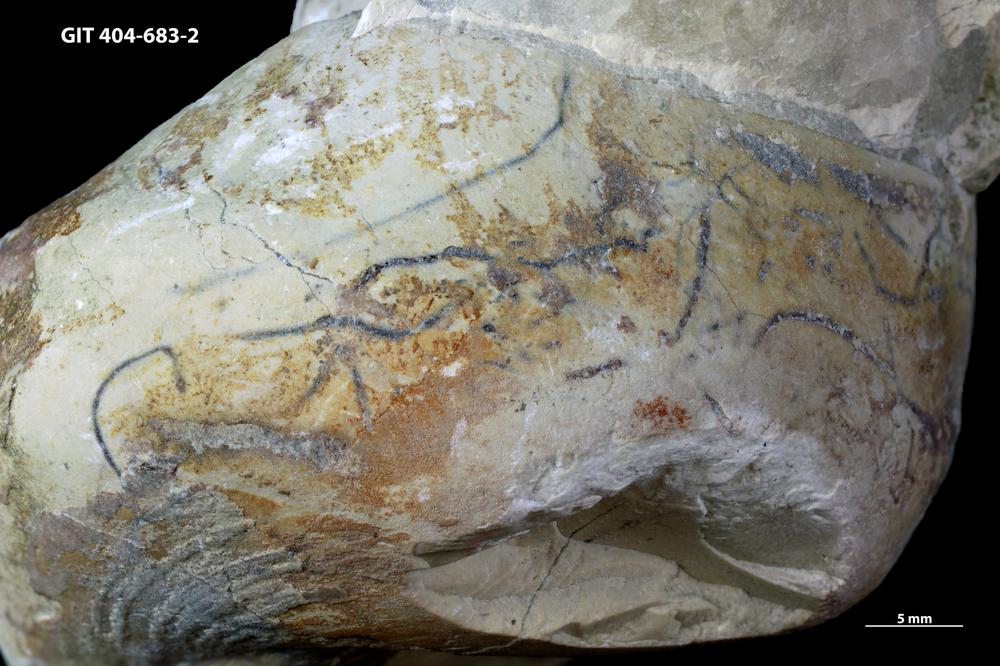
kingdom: Animalia
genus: Pilichnus
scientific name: Pilichnus
